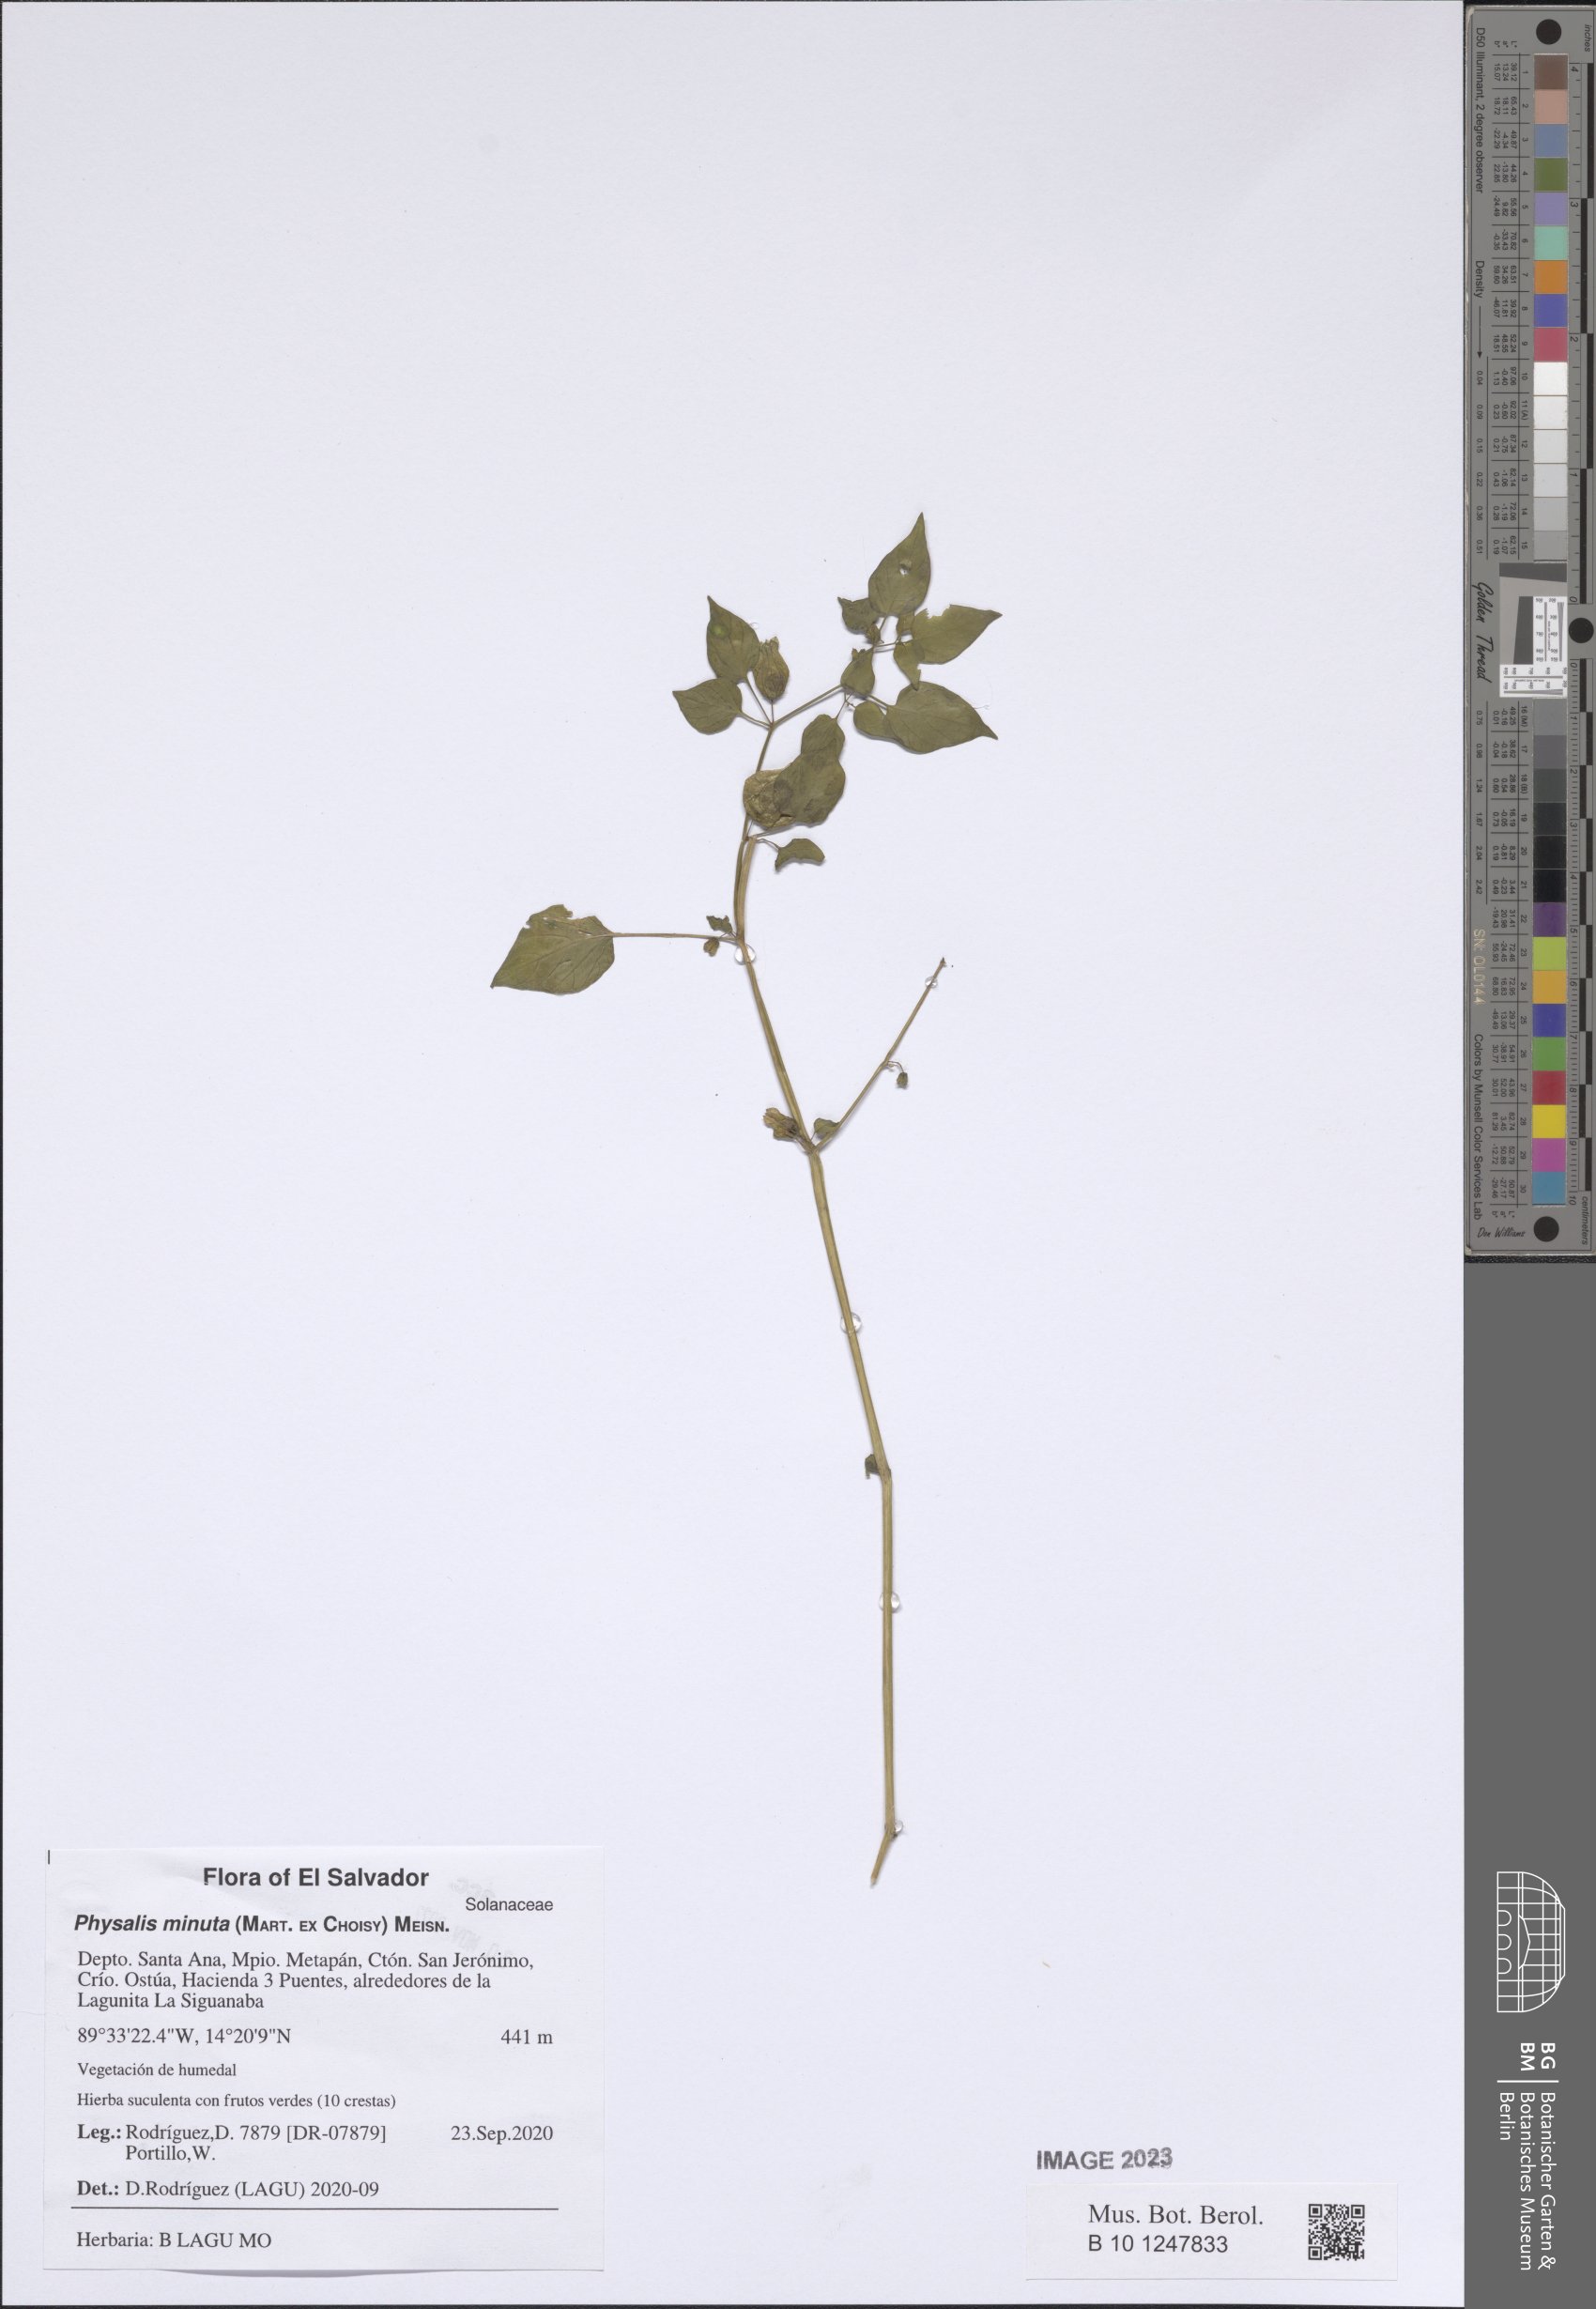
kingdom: Plantae
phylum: Tracheophyta
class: Magnoliopsida
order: Solanales
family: Solanaceae
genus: Physalis
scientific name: Physalis minuta
